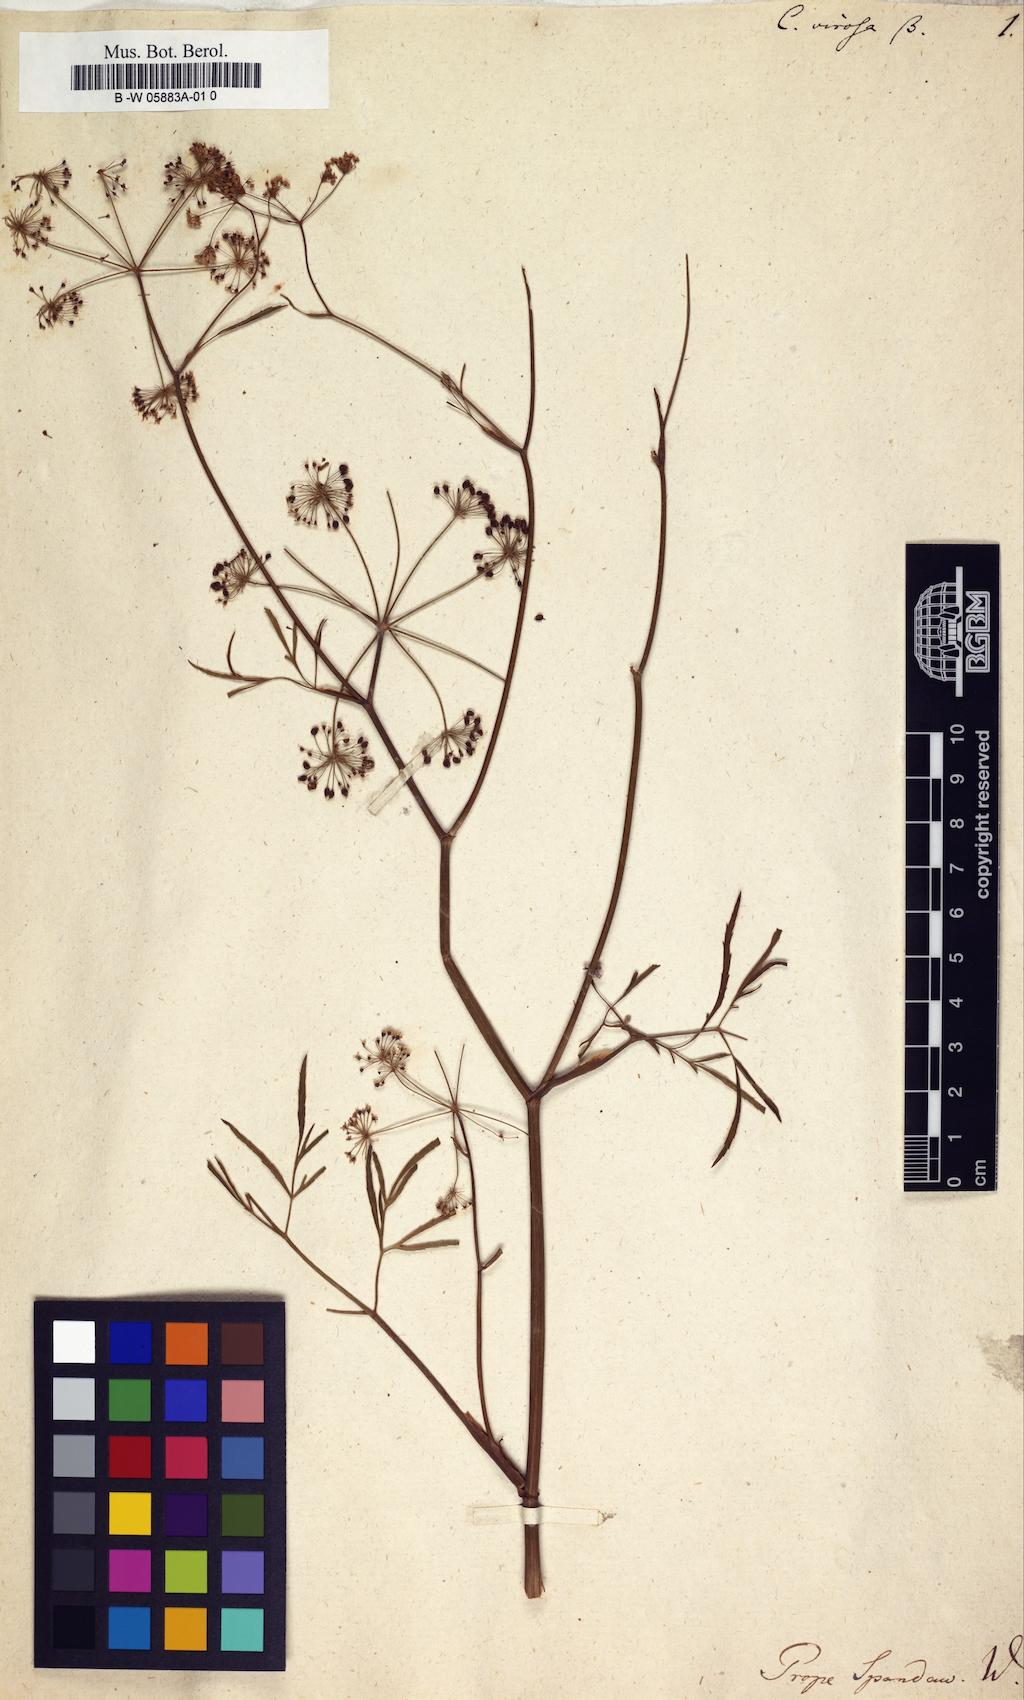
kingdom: Plantae
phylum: Tracheophyta
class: Magnoliopsida
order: Apiales
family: Apiaceae
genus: Cicuta
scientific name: Cicuta virosa
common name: Cowbane
